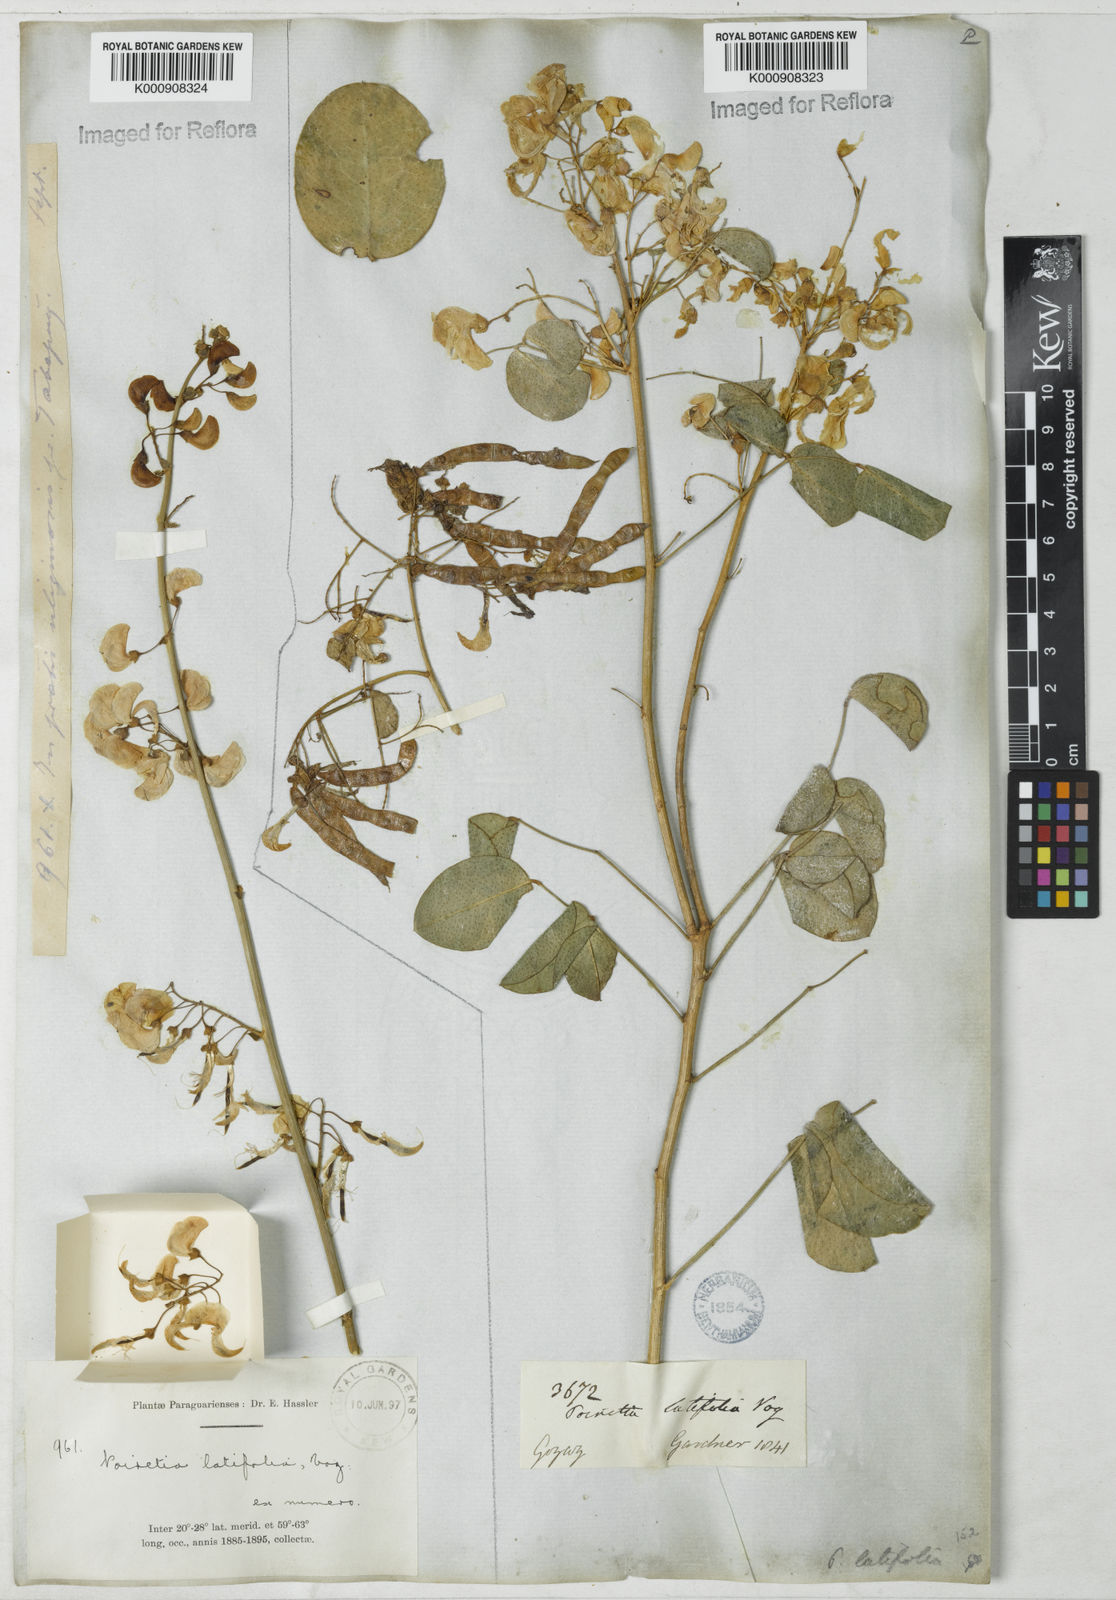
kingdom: Plantae
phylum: Tracheophyta
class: Magnoliopsida
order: Fabales
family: Fabaceae
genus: Poiretia
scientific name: Poiretia latifolia
